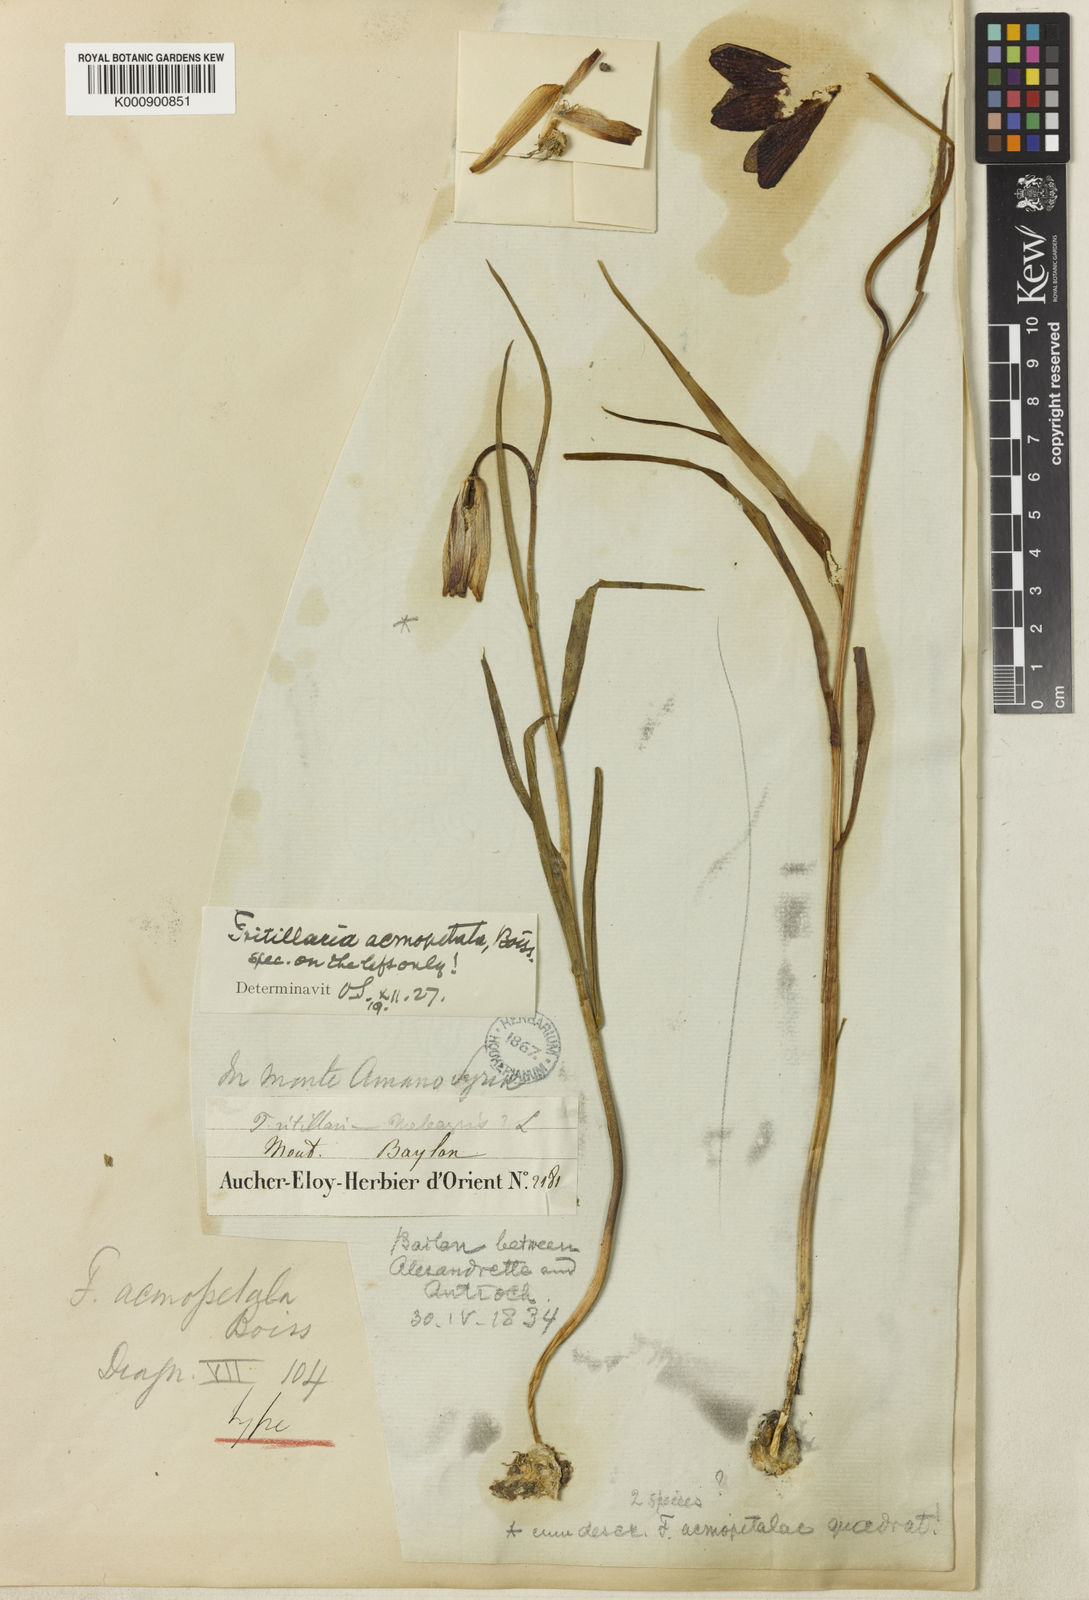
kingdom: Plantae
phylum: Tracheophyta
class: Liliopsida
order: Liliales
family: Liliaceae
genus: Fritillaria
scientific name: Fritillaria acmopetala
